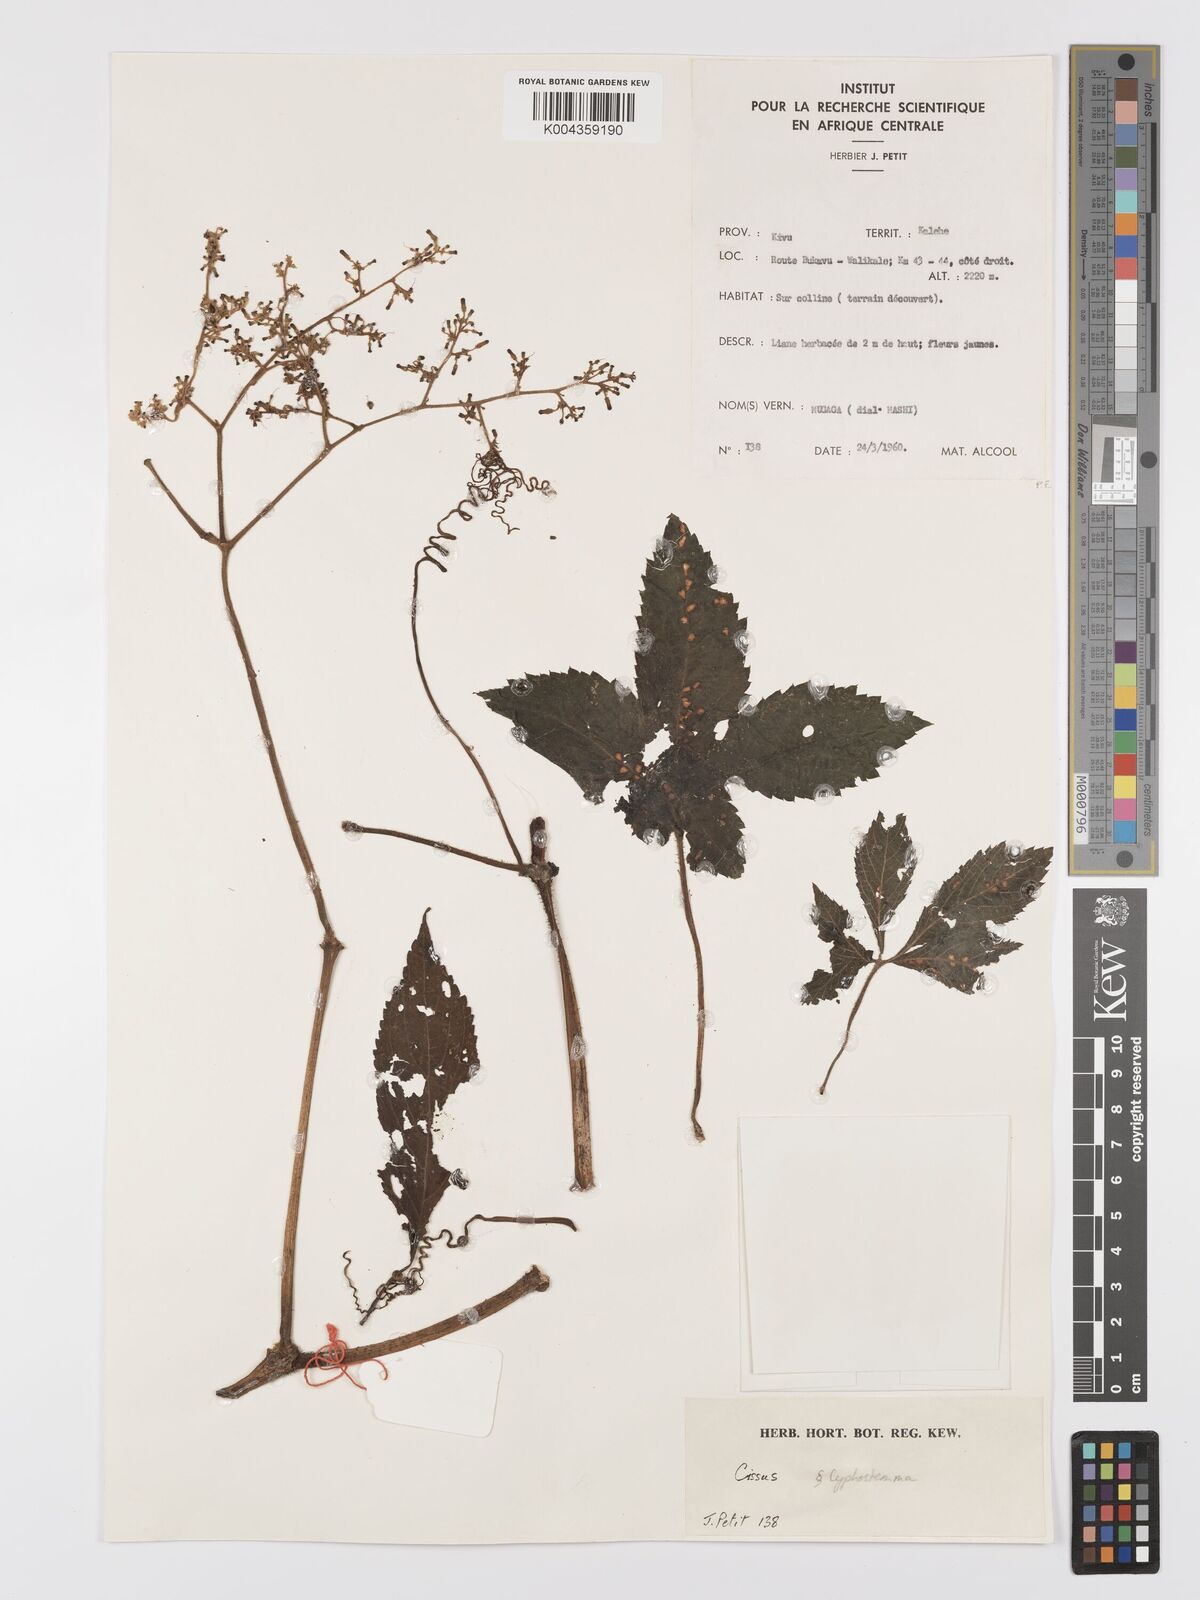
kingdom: Plantae
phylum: Tracheophyta
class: Magnoliopsida
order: Vitales
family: Vitaceae
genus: Cyphostemma
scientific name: Cyphostemma
